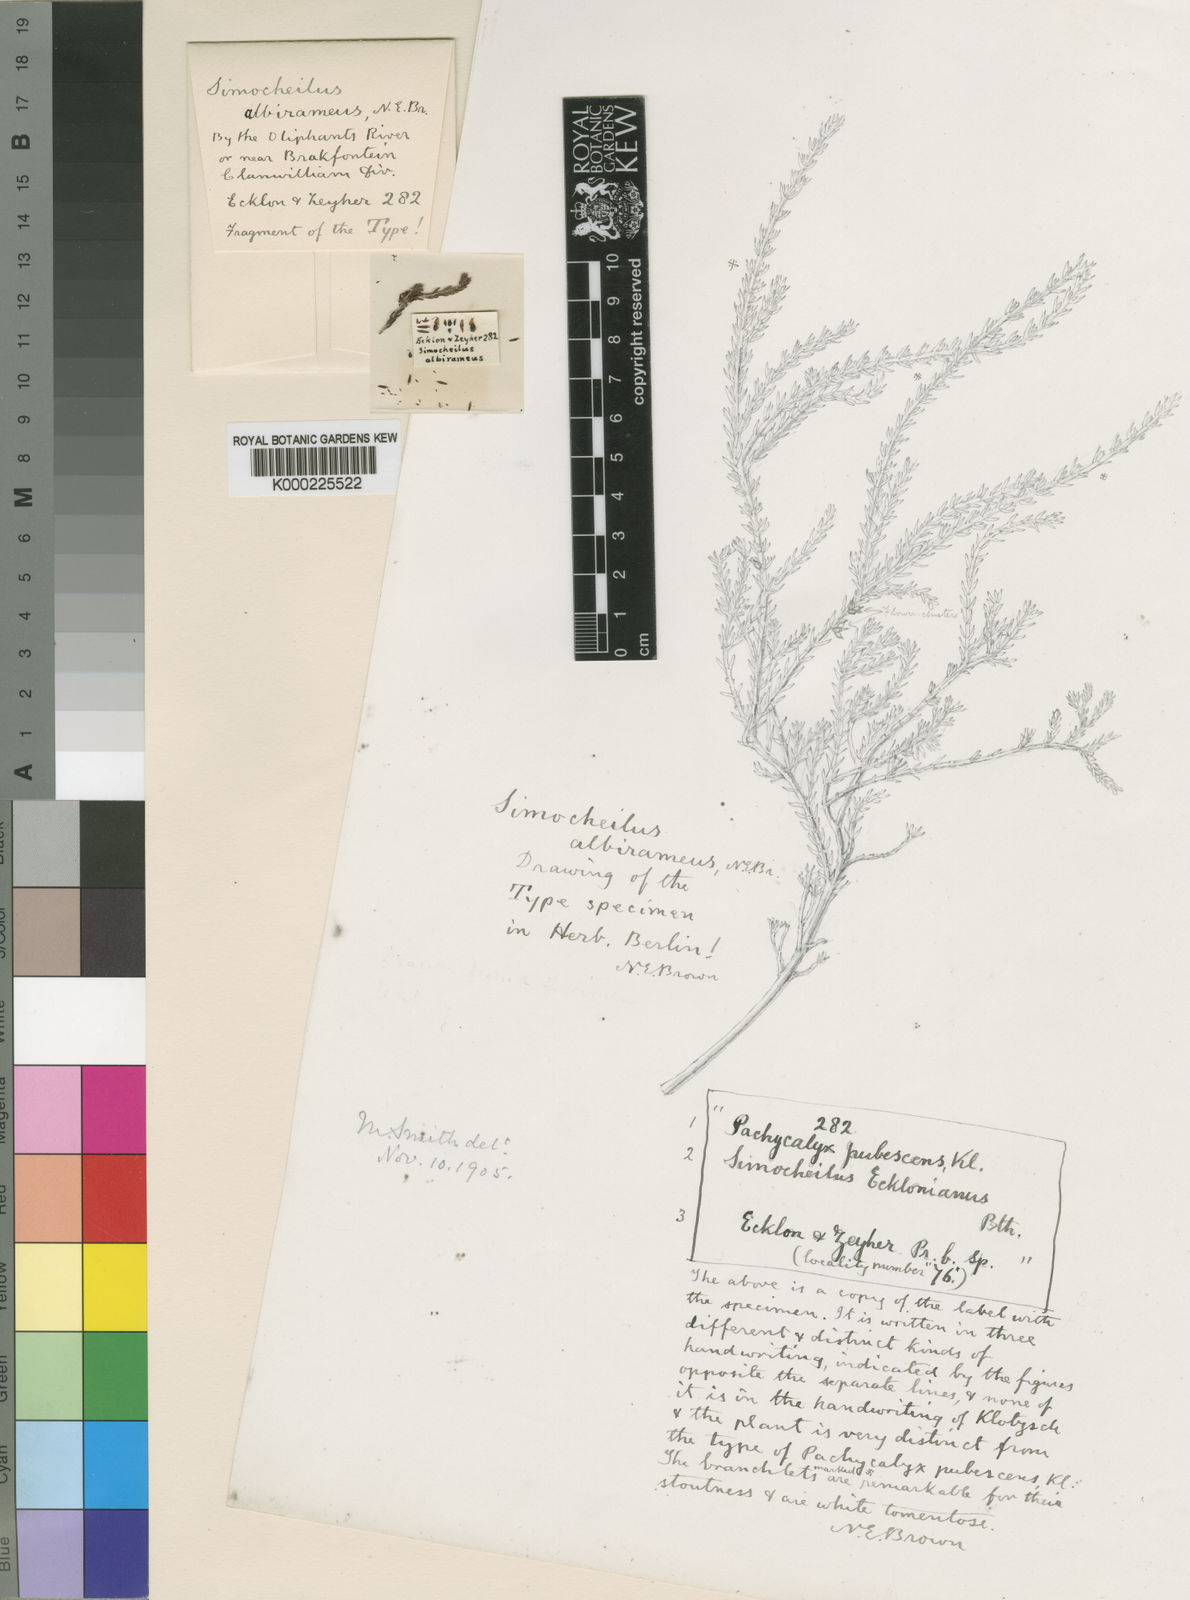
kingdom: Plantae
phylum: Tracheophyta
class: Magnoliopsida
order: Ericales
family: Ericaceae
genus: Erica
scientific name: Erica glabra
